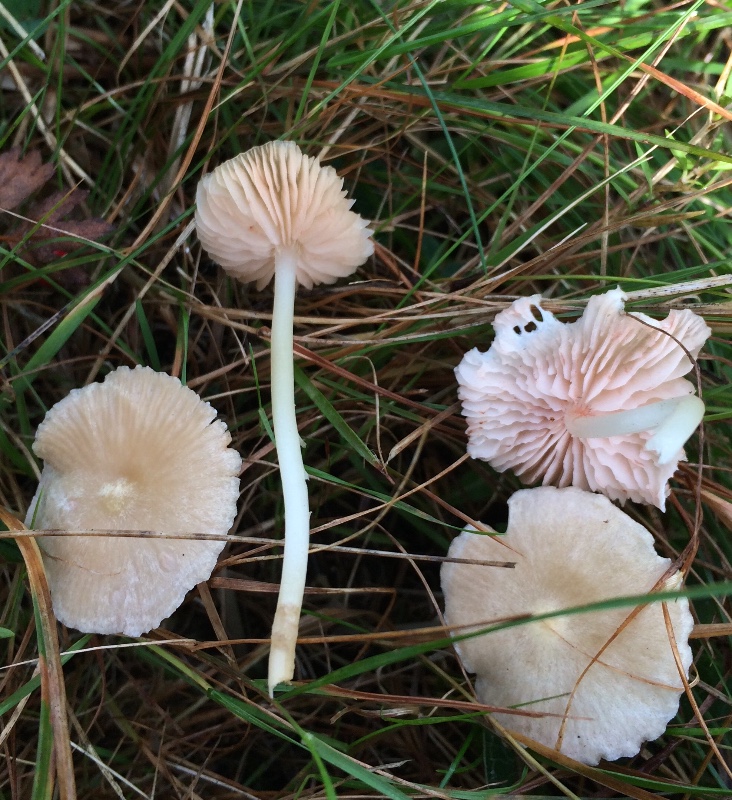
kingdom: Fungi
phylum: Basidiomycota
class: Agaricomycetes
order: Agaricales
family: Entolomataceae
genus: Entoloma
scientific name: Entoloma
